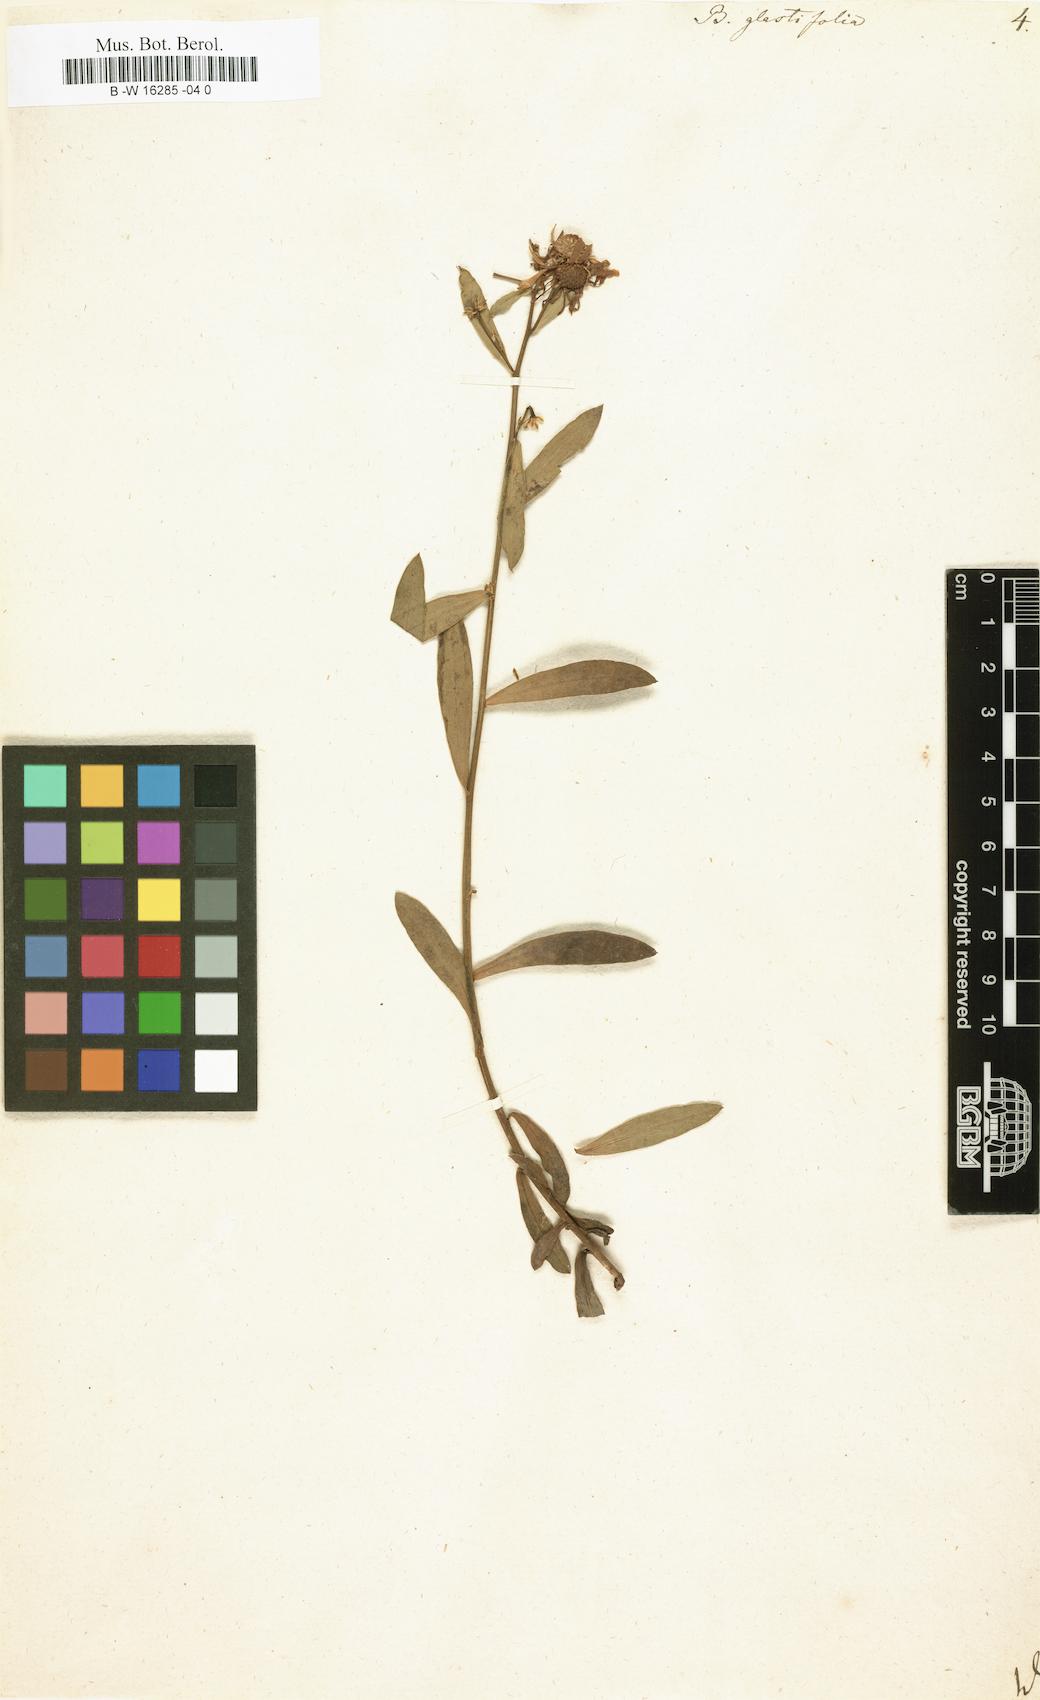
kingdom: Plantae
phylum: Tracheophyta
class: Magnoliopsida
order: Asterales
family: Asteraceae
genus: Boltonia
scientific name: Boltonia glastifolia
